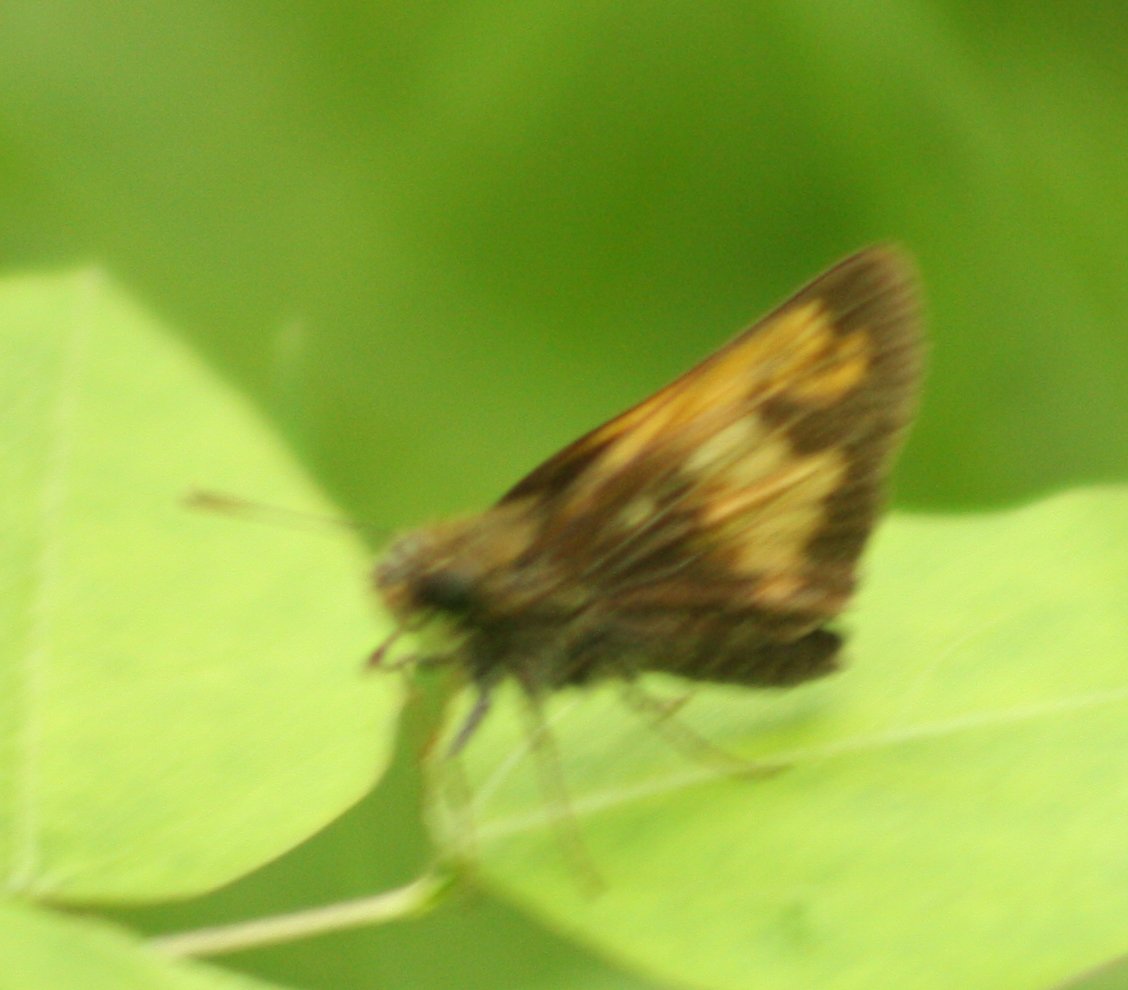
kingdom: Animalia
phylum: Arthropoda
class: Insecta
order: Lepidoptera
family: Hesperiidae
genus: Lon
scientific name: Lon hobomok
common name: Hobomok Skipper
